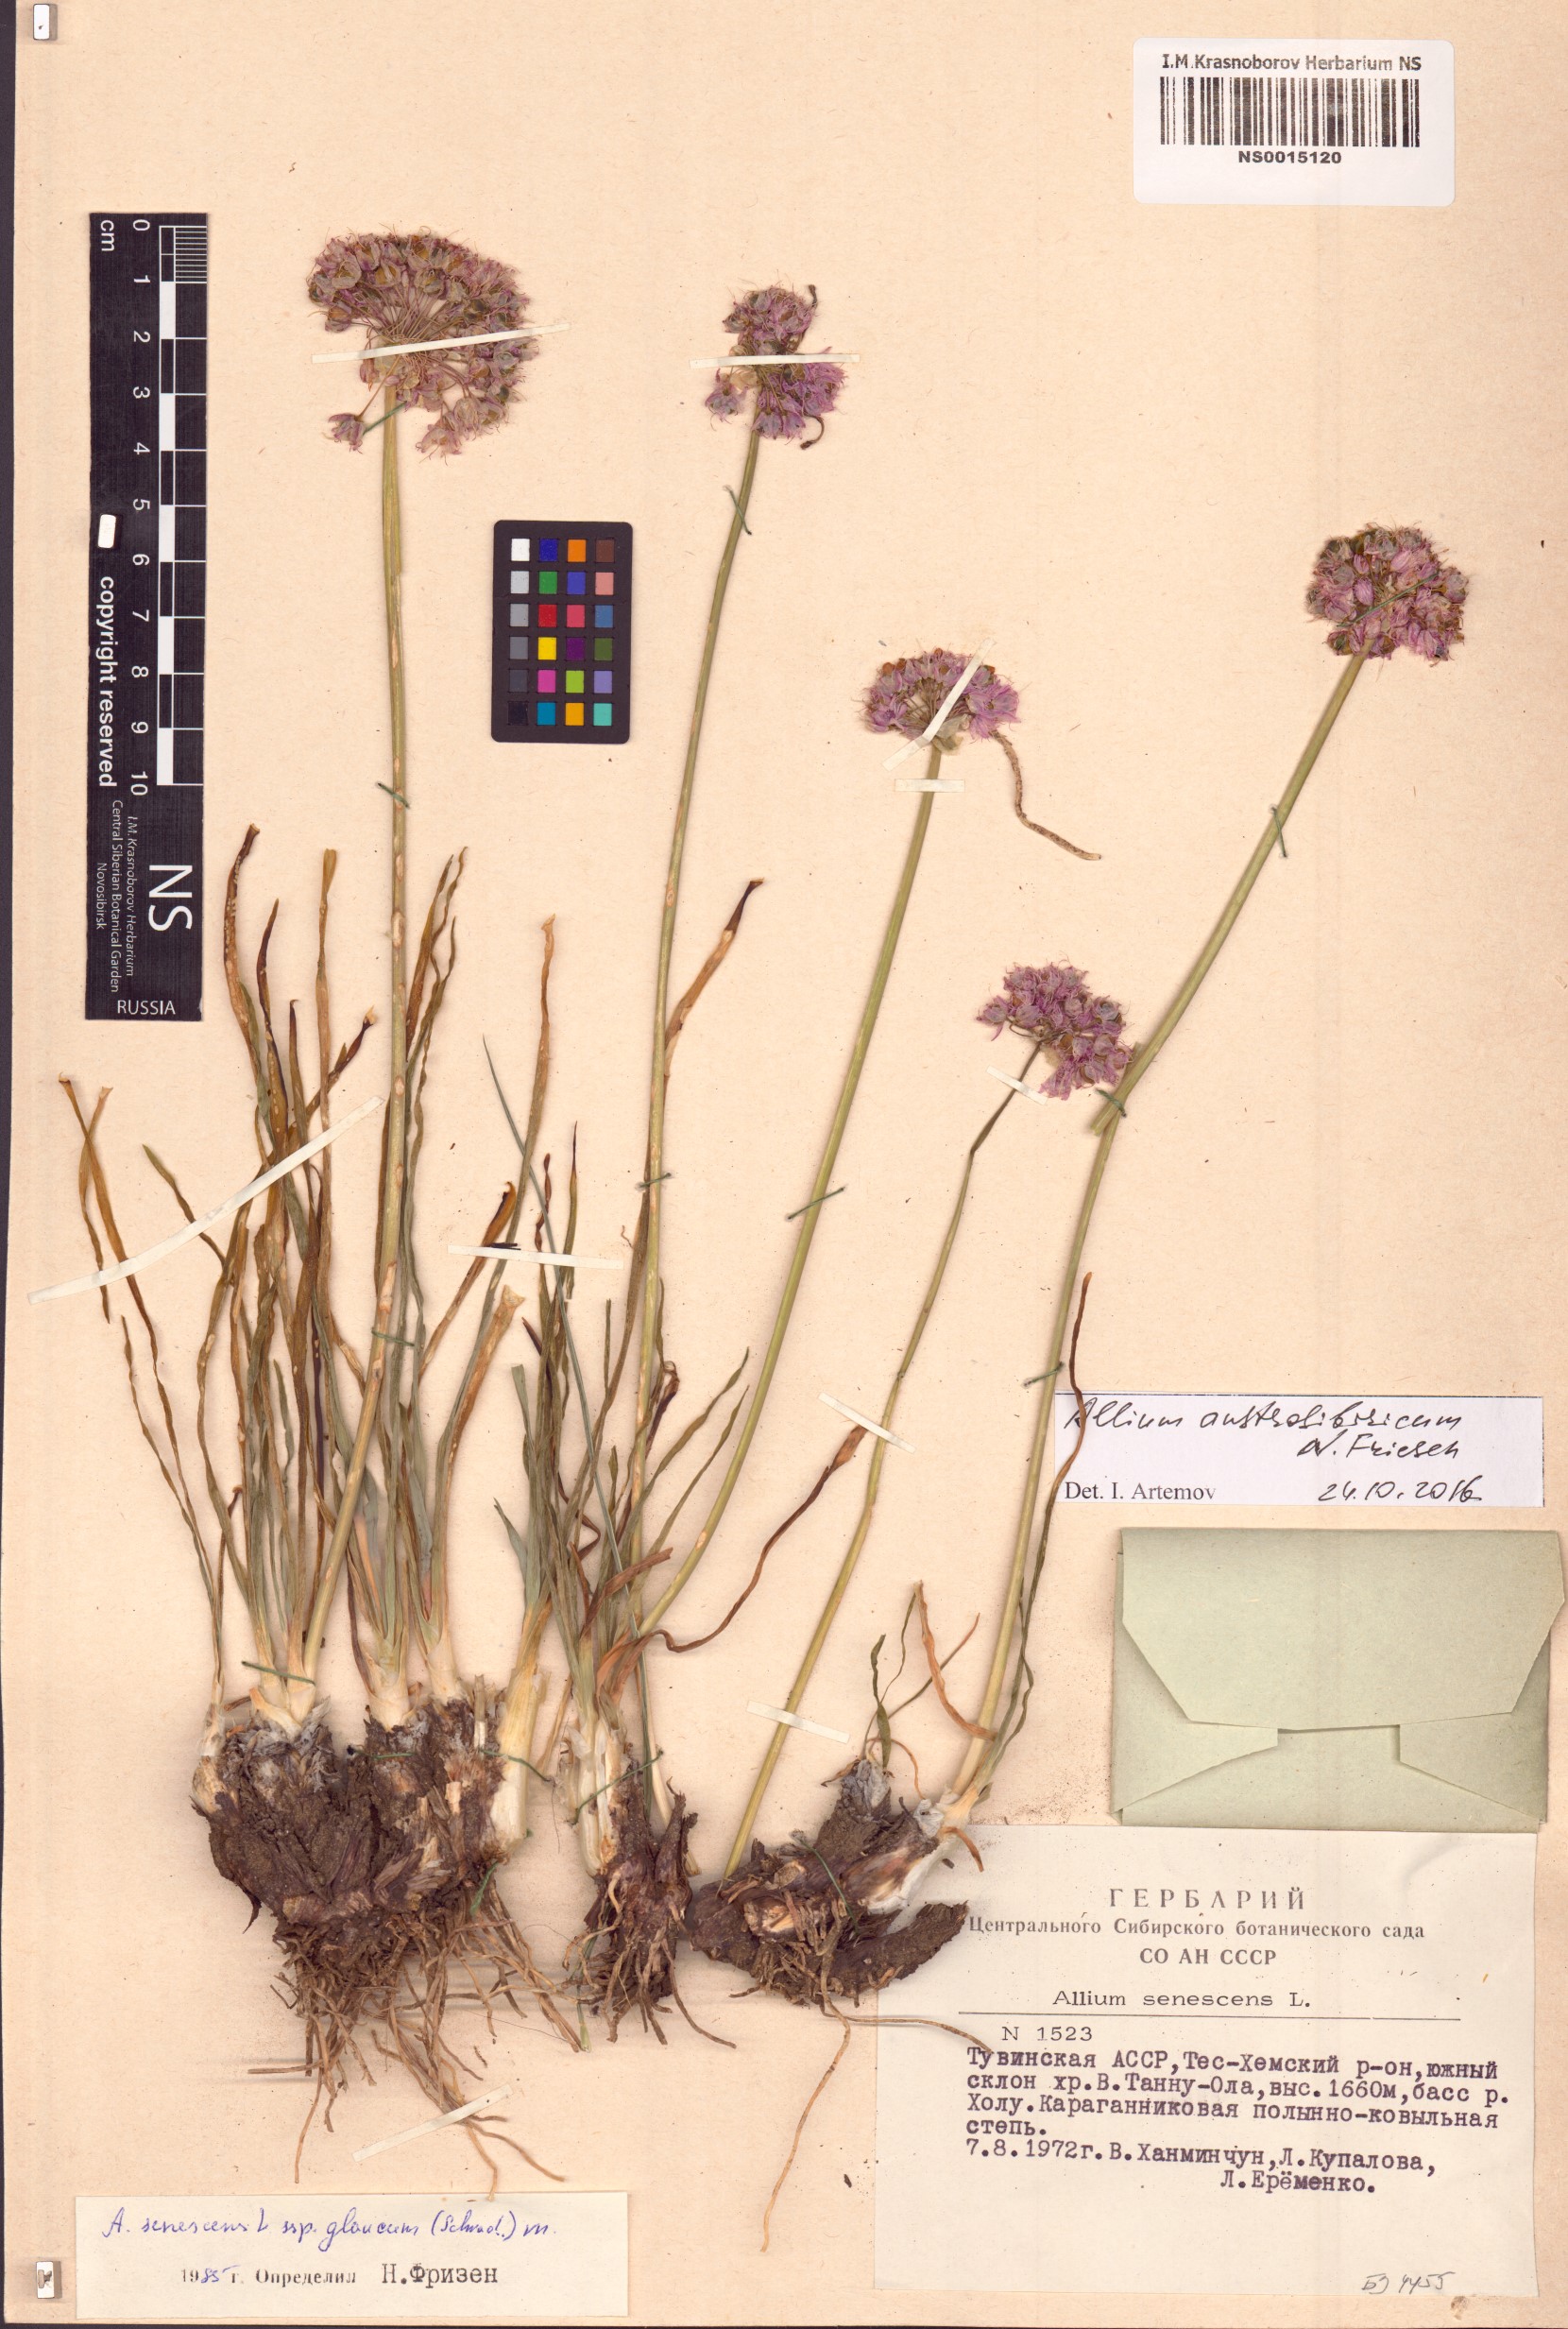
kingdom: Plantae
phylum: Tracheophyta
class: Liliopsida
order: Asparagales
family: Amaryllidaceae
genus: Allium
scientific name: Allium austrosibiricum
